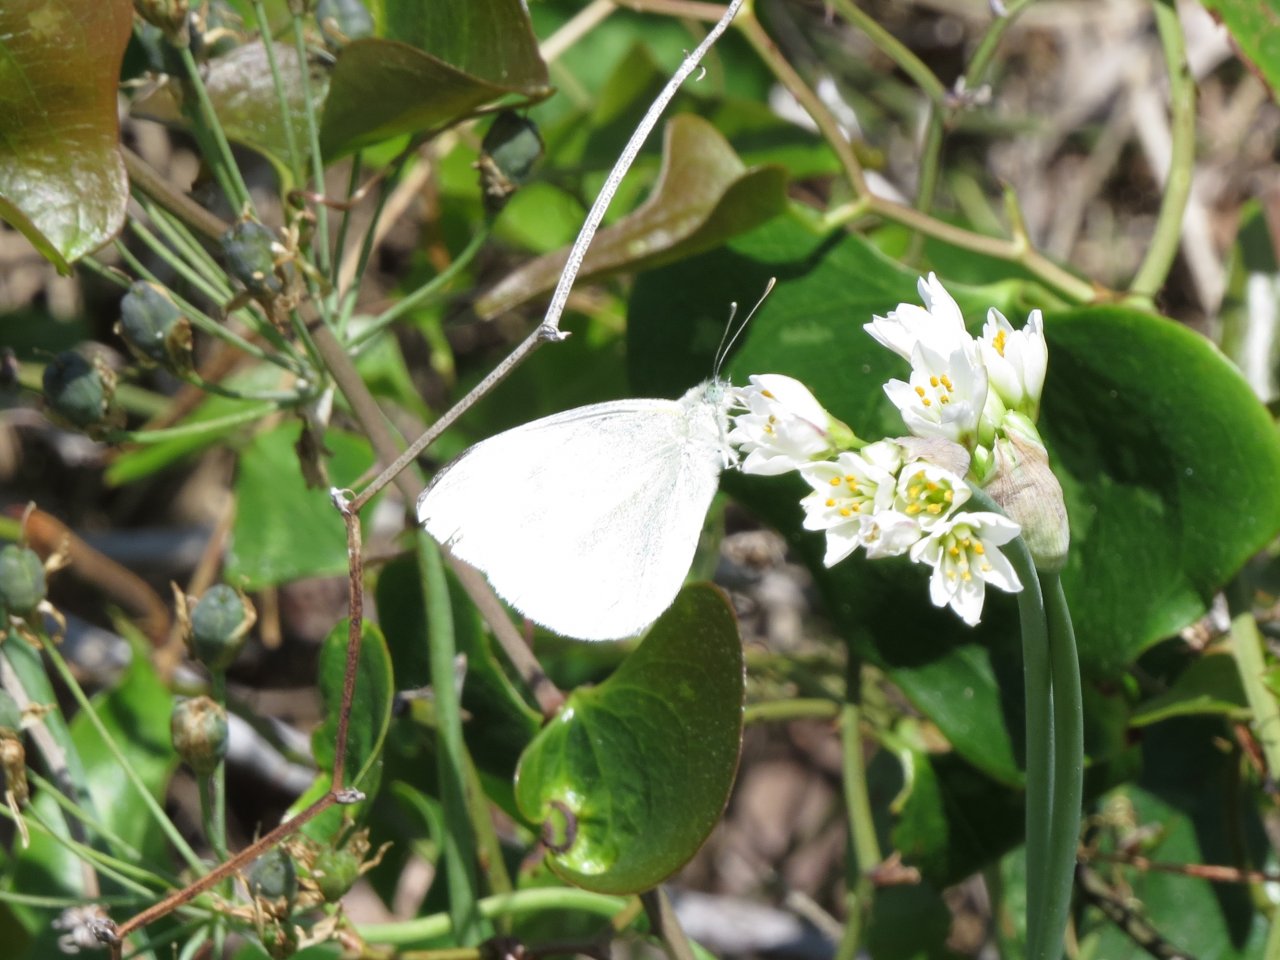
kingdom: Animalia
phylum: Arthropoda
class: Insecta
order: Lepidoptera
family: Pieridae
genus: Pieris
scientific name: Pieris rapae
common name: Cabbage White
